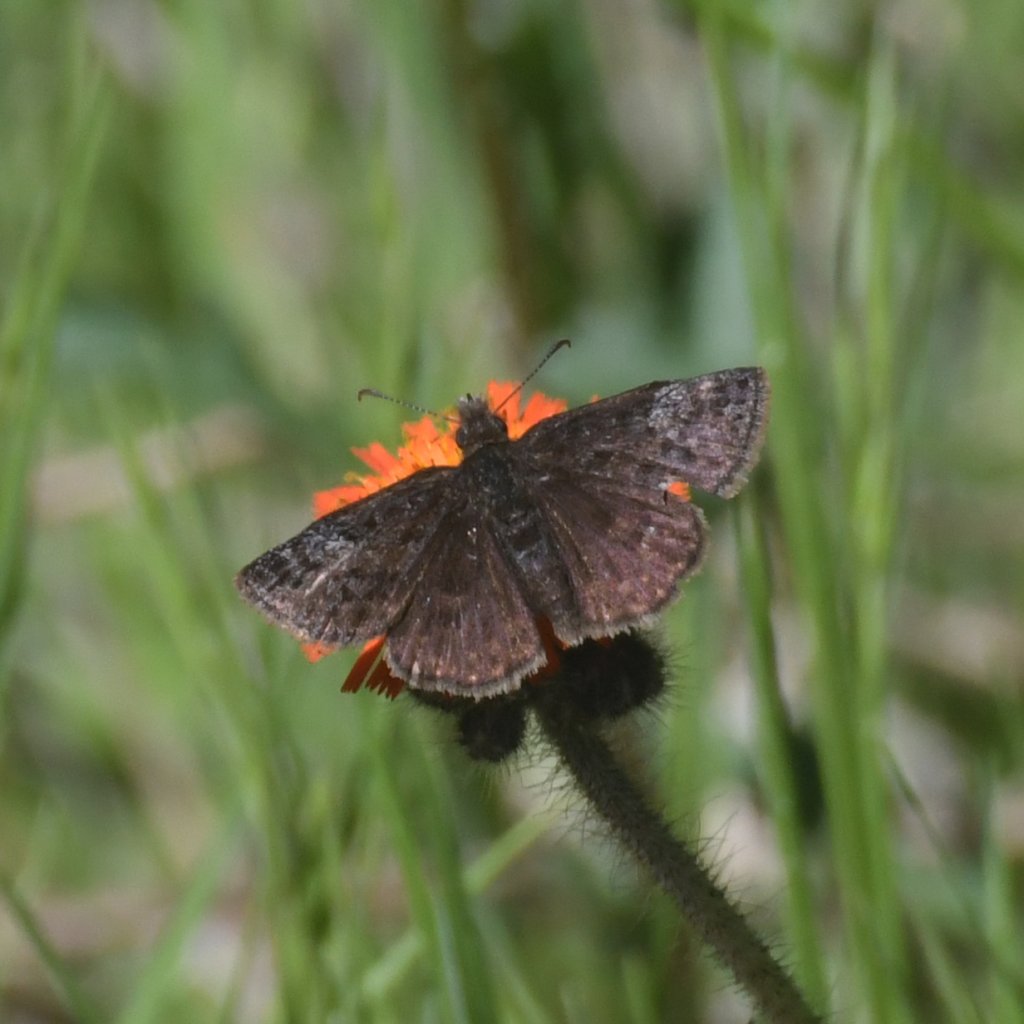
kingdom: Animalia
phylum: Arthropoda
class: Insecta
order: Lepidoptera
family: Hesperiidae
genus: Erynnis
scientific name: Erynnis icelus
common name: Dreamy Duskywing
